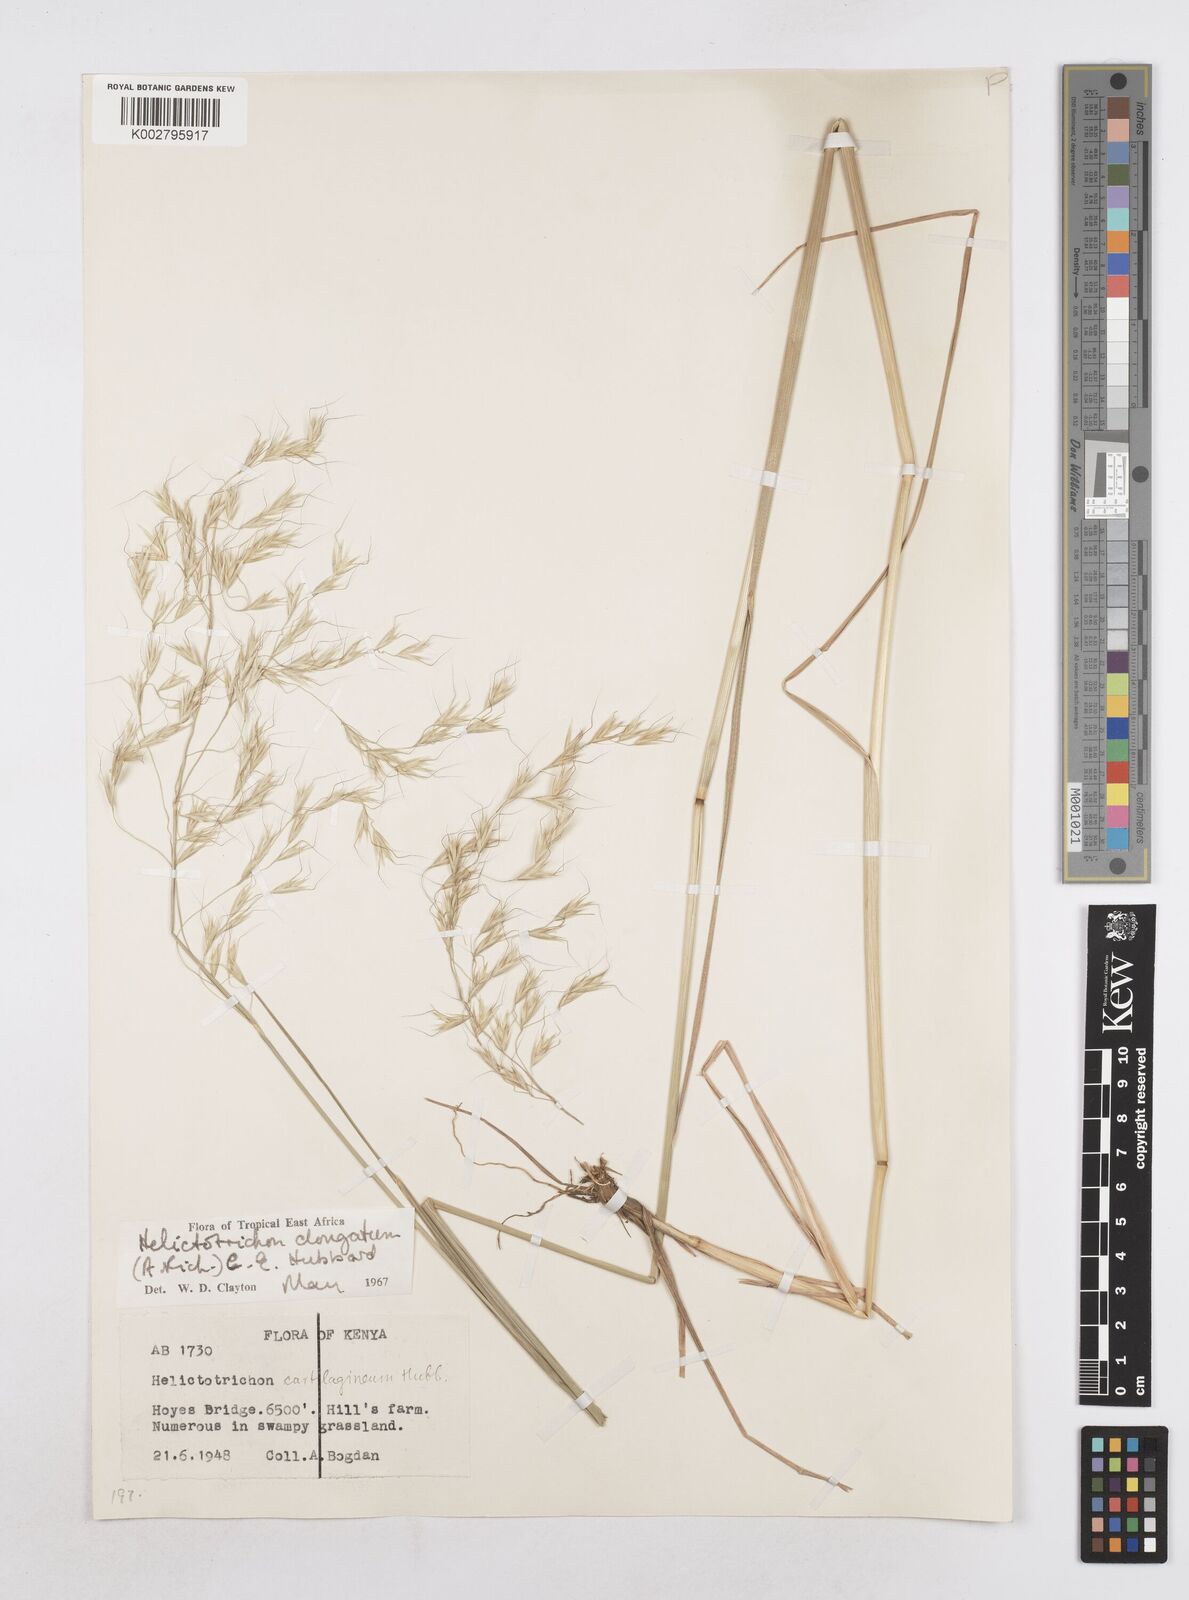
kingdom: Plantae
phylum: Tracheophyta
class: Liliopsida
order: Poales
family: Poaceae
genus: Trisetopsis
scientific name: Trisetopsis elongata
